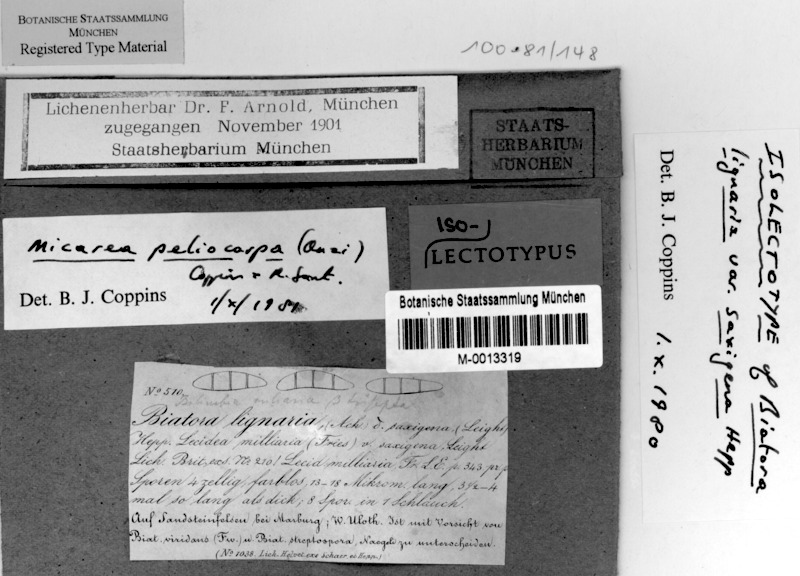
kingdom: Fungi
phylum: Ascomycota
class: Lecanoromycetes
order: Lecanorales
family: Byssolomataceae
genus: Micarea
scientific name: Micarea lignaria
